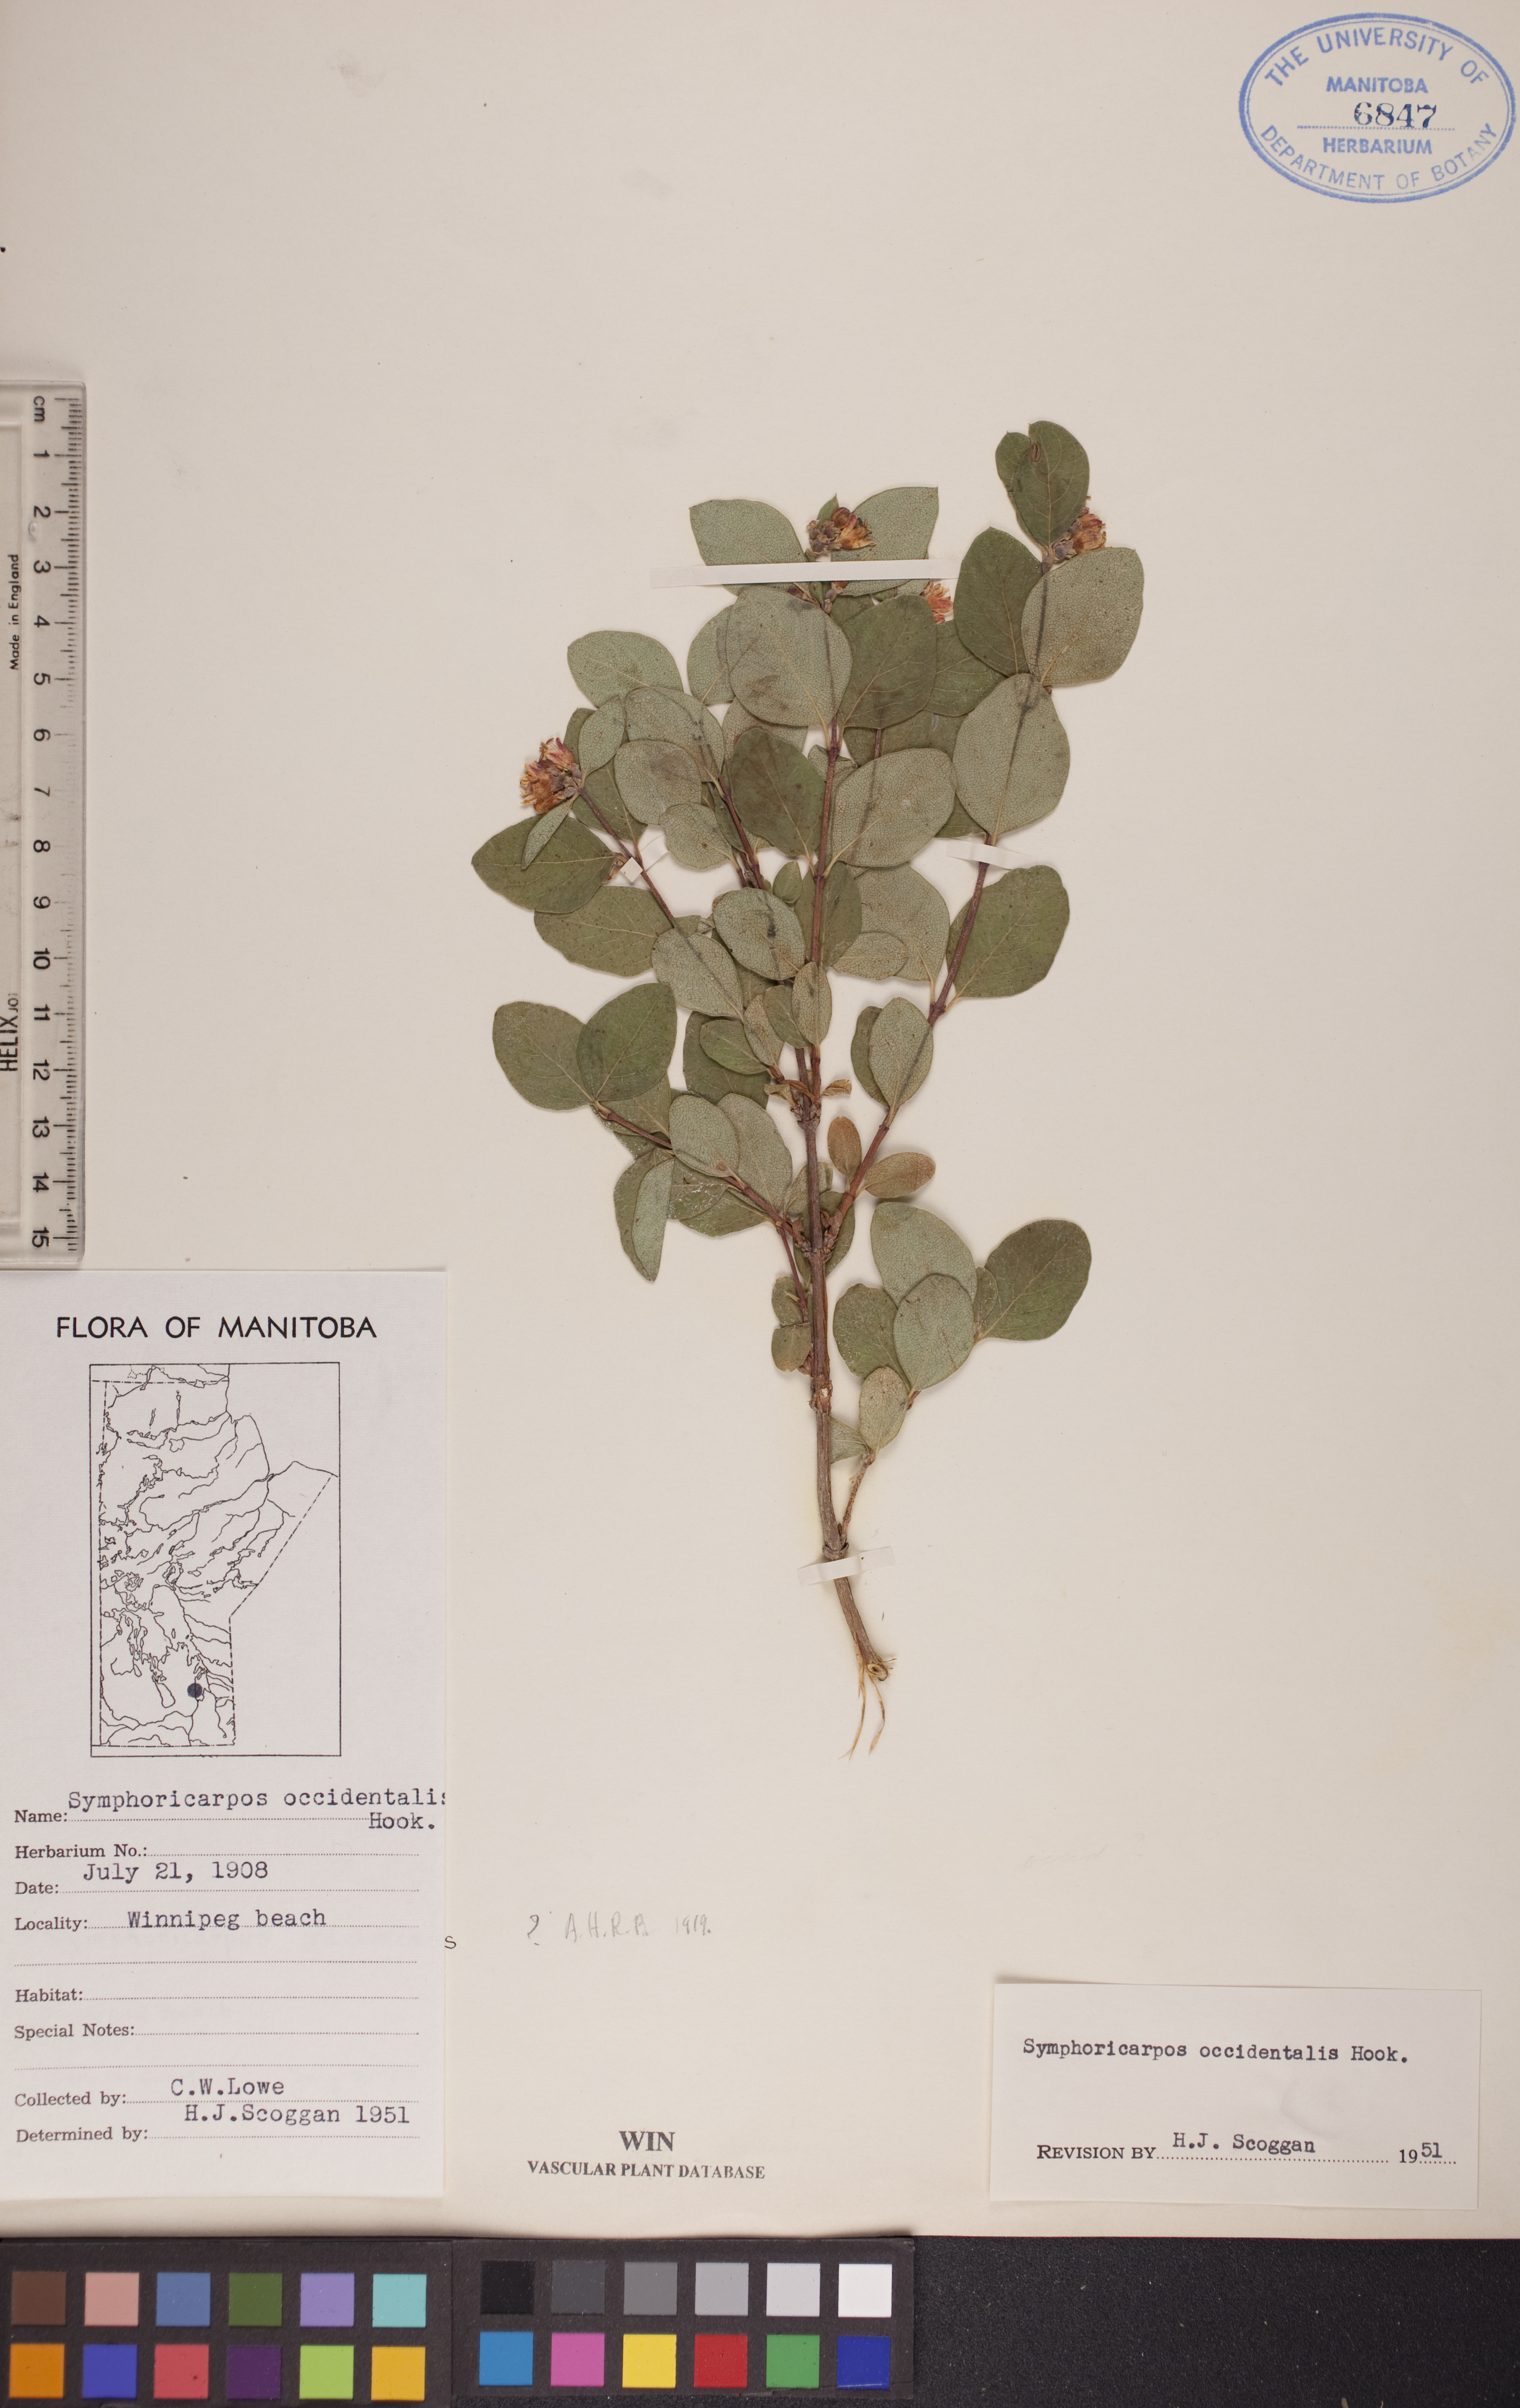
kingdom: Plantae
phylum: Tracheophyta
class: Magnoliopsida
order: Dipsacales
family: Caprifoliaceae
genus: Symphoricarpos
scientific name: Symphoricarpos occidentalis
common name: Wolfberry
